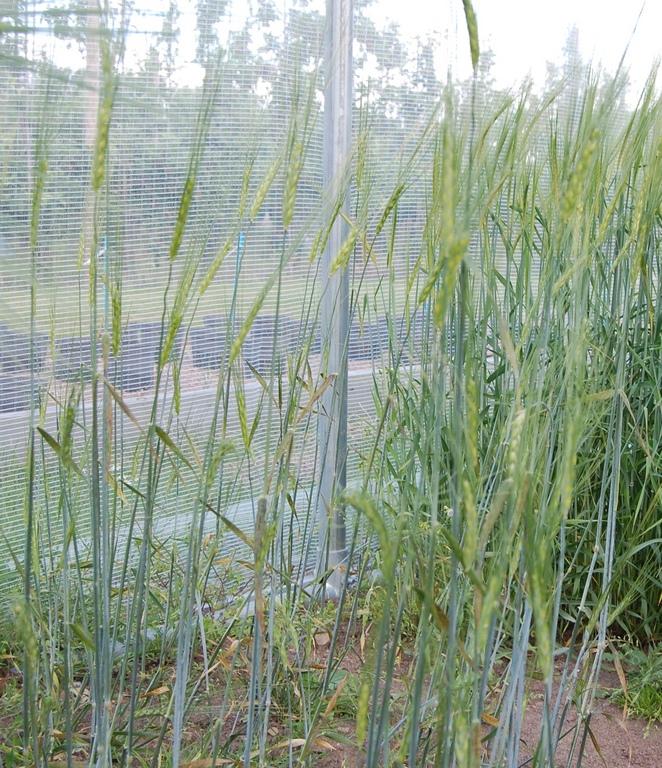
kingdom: Plantae
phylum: Tracheophyta
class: Liliopsida
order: Poales
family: Poaceae
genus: Hordeum
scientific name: Hordeum vulgare
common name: Common barley
